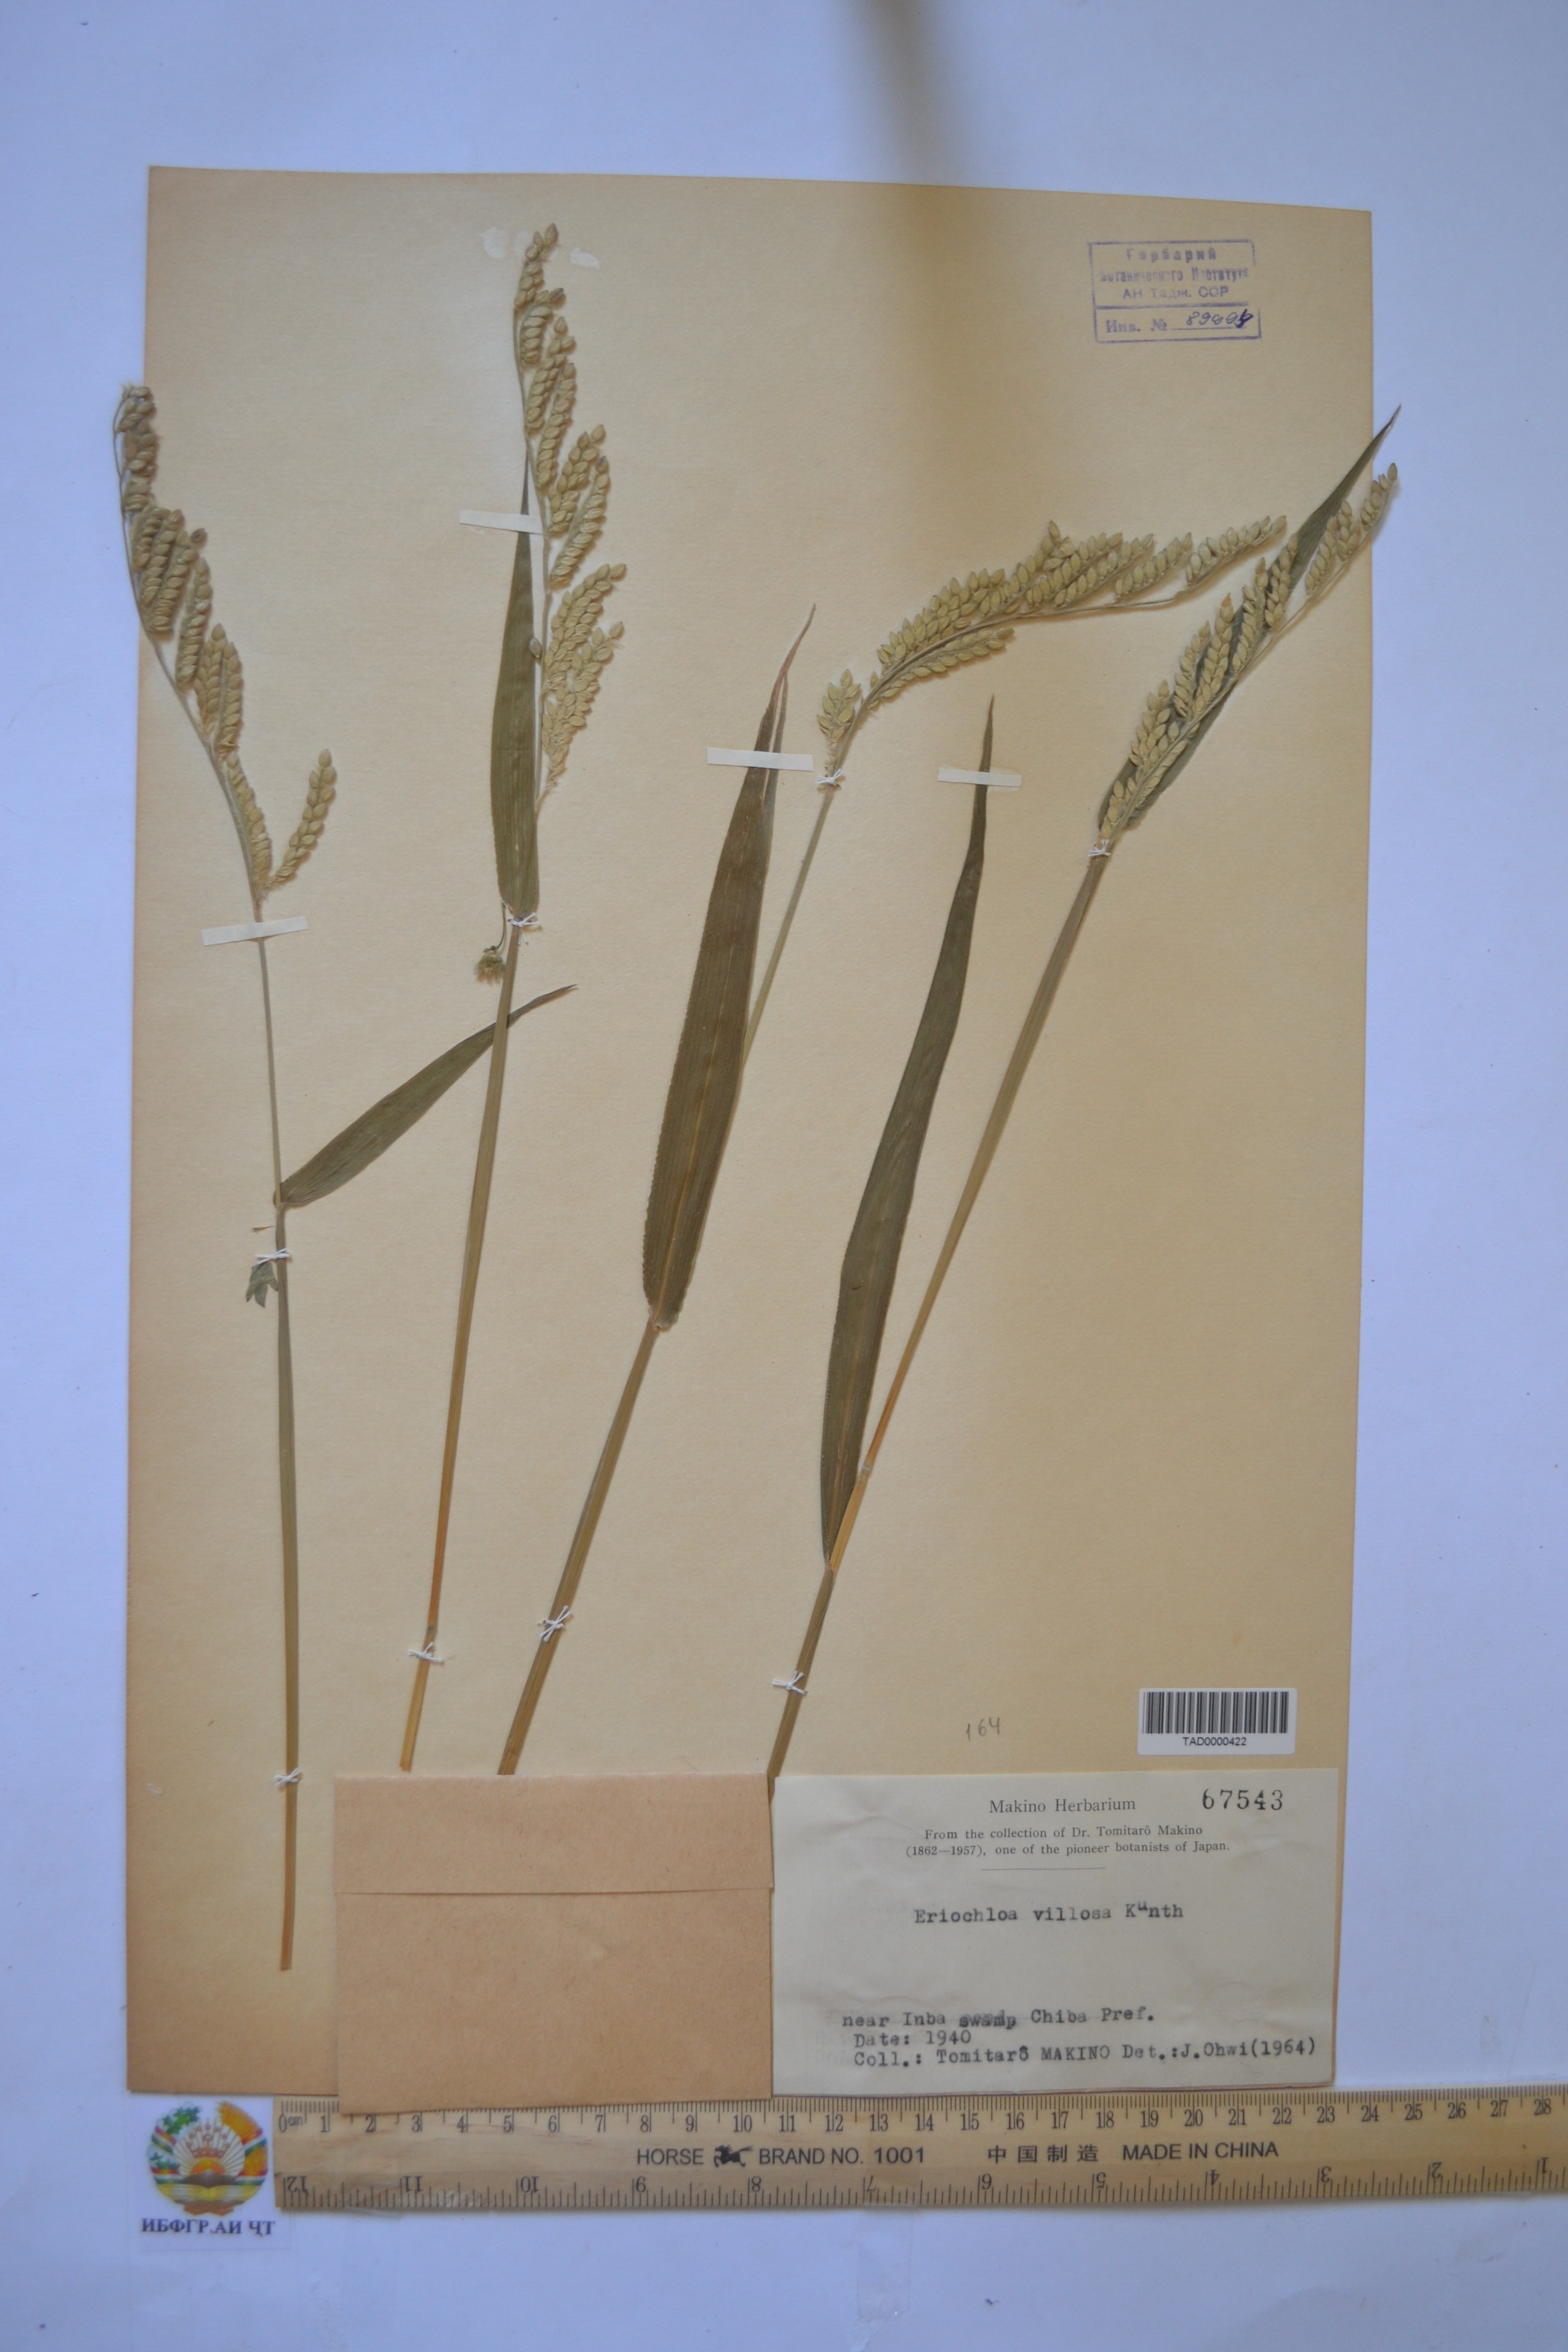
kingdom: Plantae
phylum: Tracheophyta
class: Liliopsida
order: Poales
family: Poaceae
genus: Eriochloa
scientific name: Eriochloa villosa
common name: Hairy cupgrass
